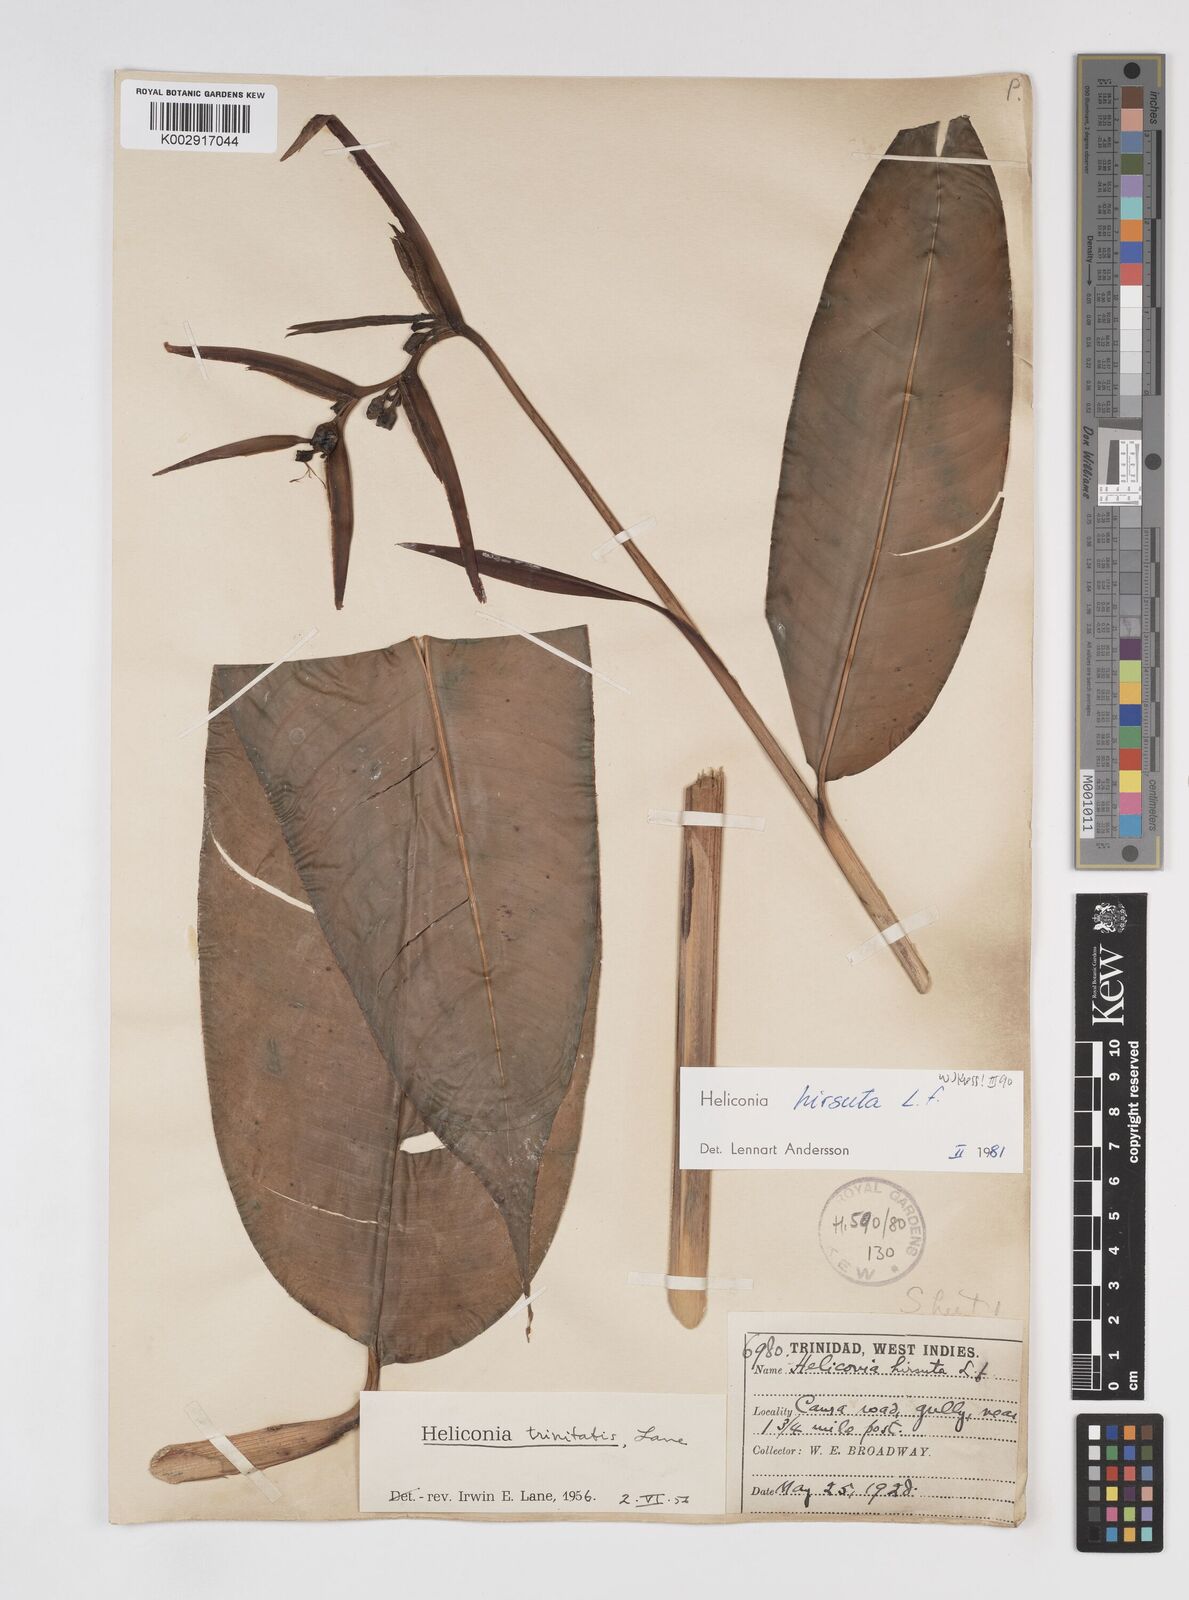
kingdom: Plantae
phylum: Tracheophyta
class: Liliopsida
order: Zingiberales
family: Heliconiaceae
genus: Heliconia
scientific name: Heliconia hirsuta
